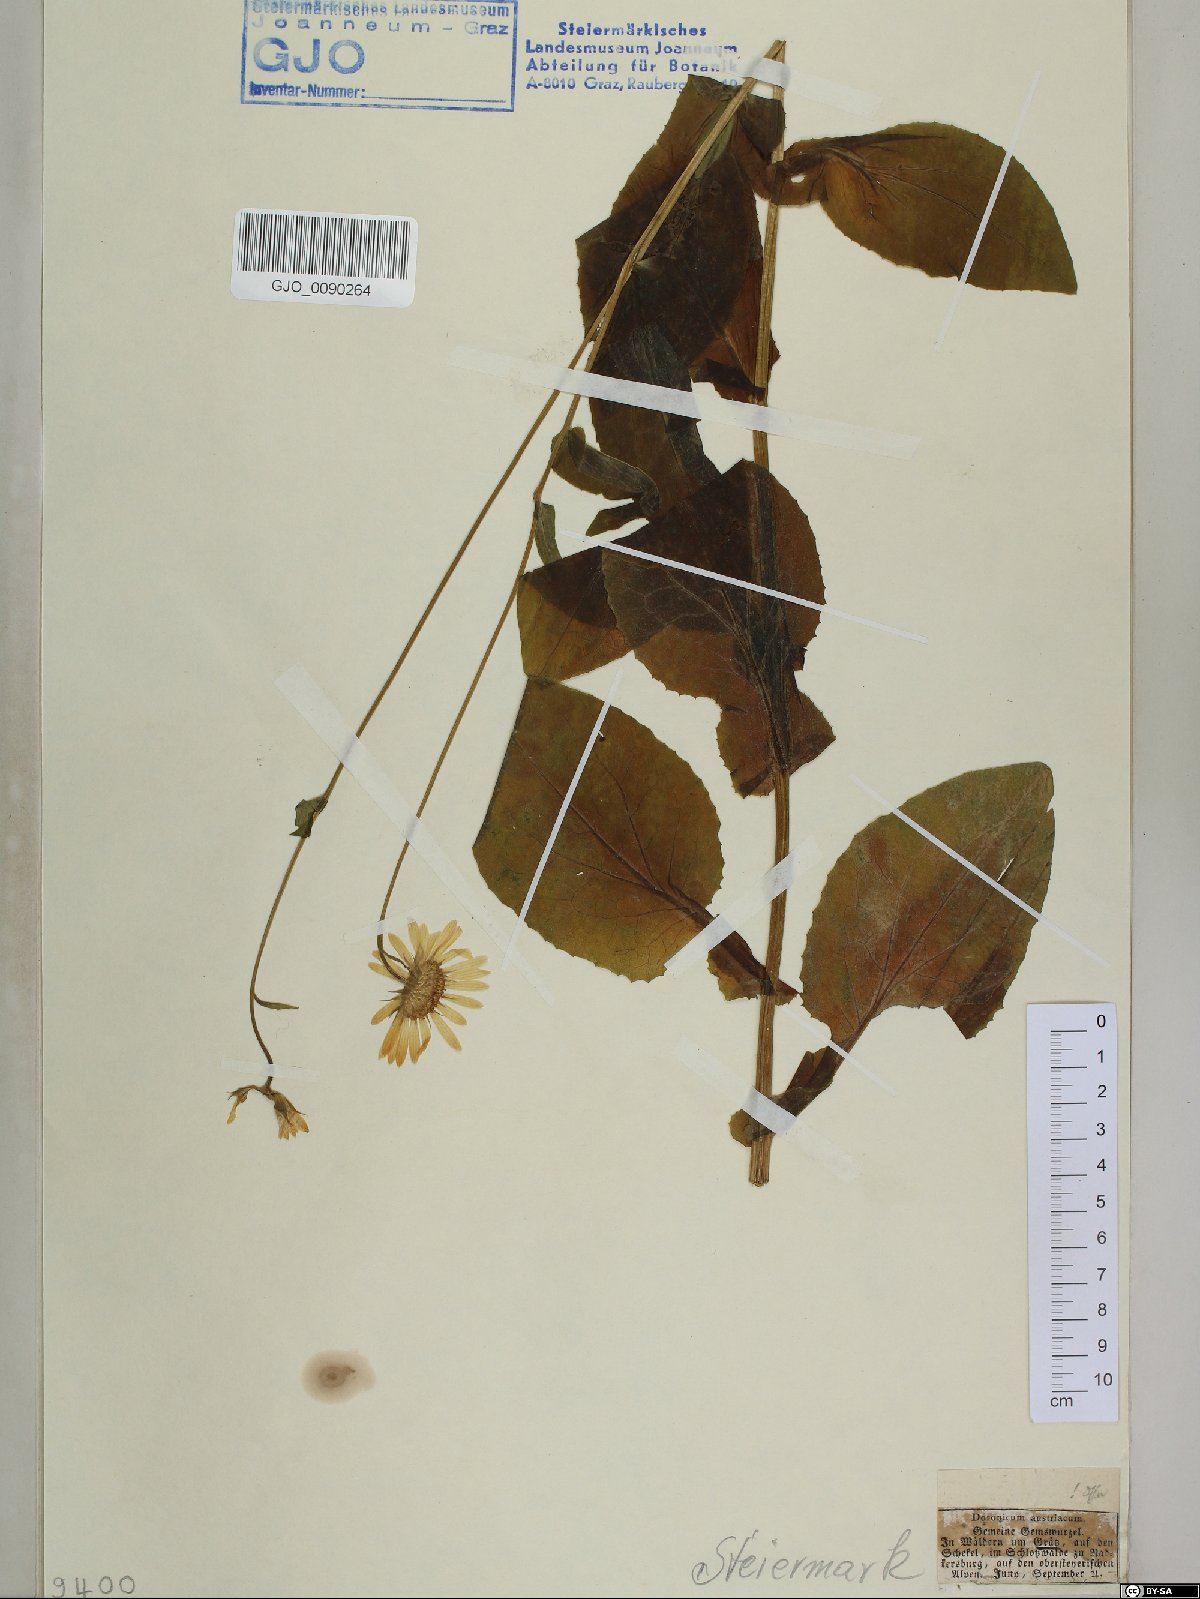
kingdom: Plantae
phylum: Tracheophyta
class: Magnoliopsida
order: Asterales
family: Asteraceae
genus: Doronicum
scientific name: Doronicum austriacum
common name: Austrian leopard's-bane
